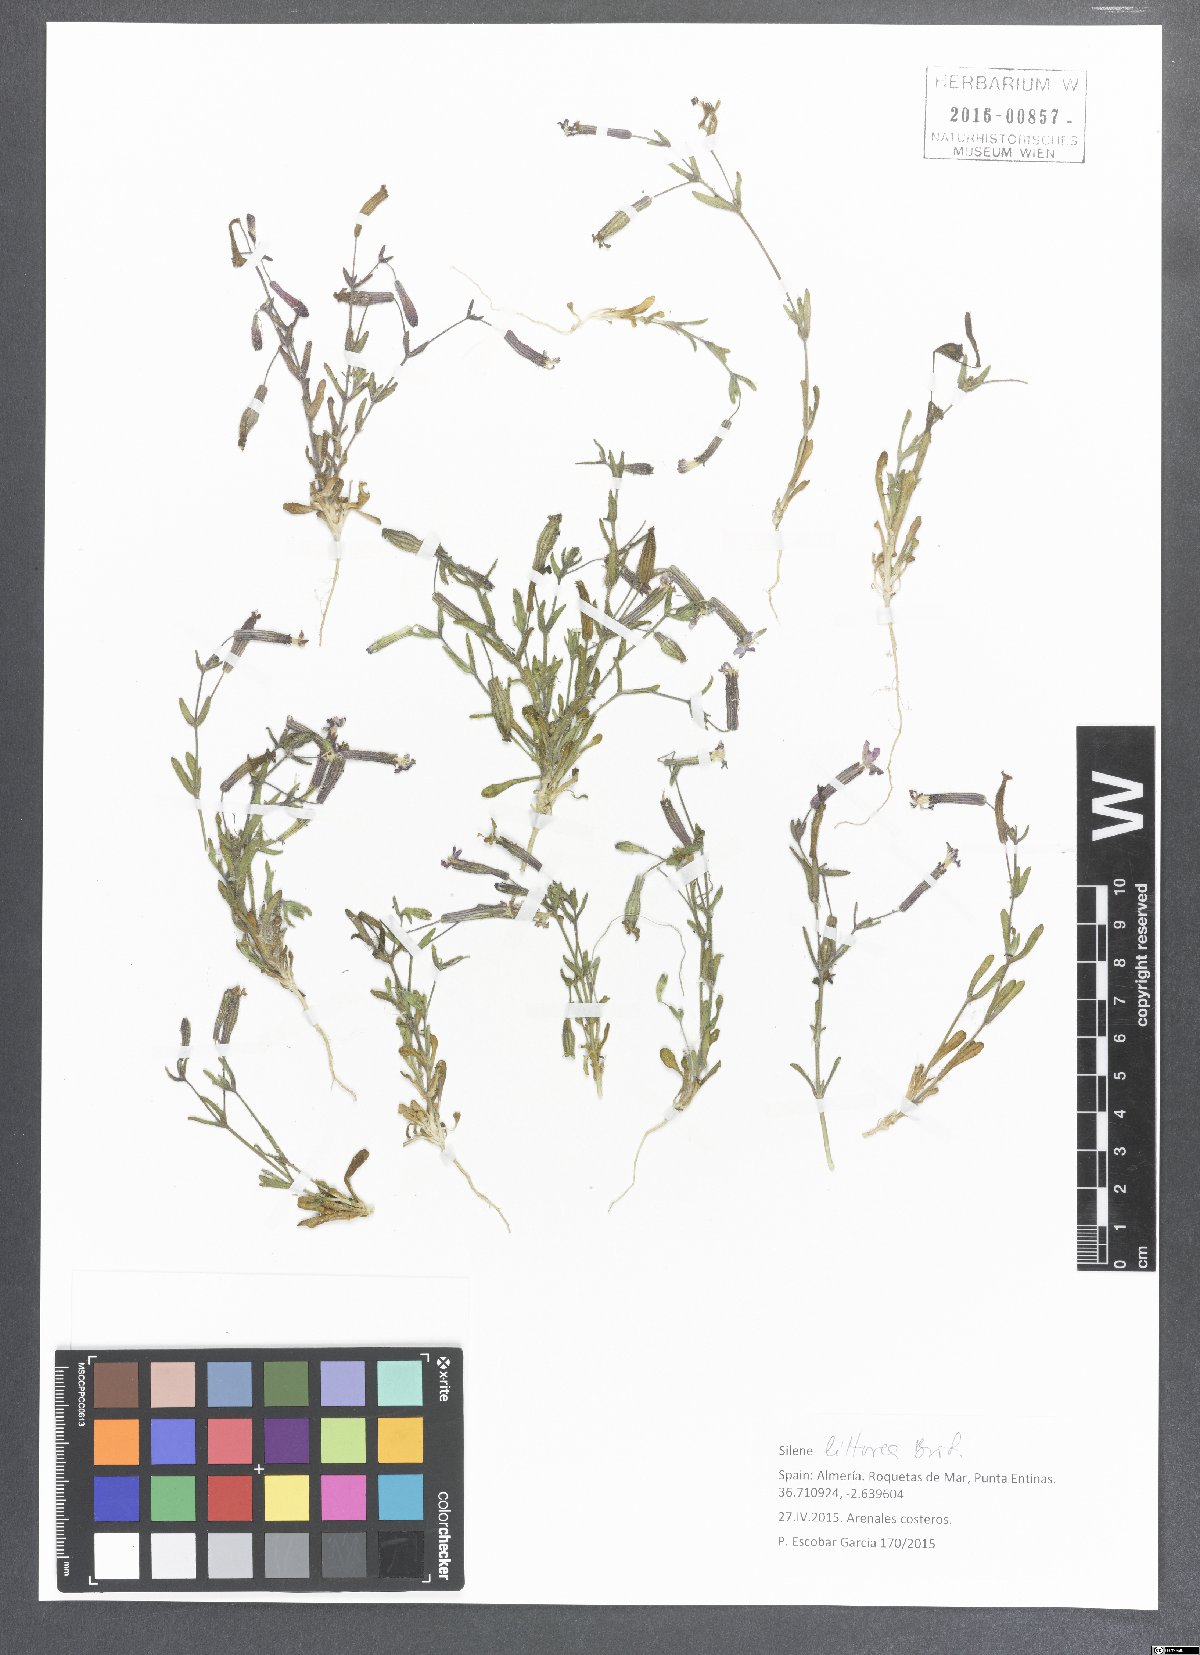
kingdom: Plantae
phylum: Tracheophyta
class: Magnoliopsida
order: Caryophyllales
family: Caryophyllaceae
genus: Silene
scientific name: Silene littorea
